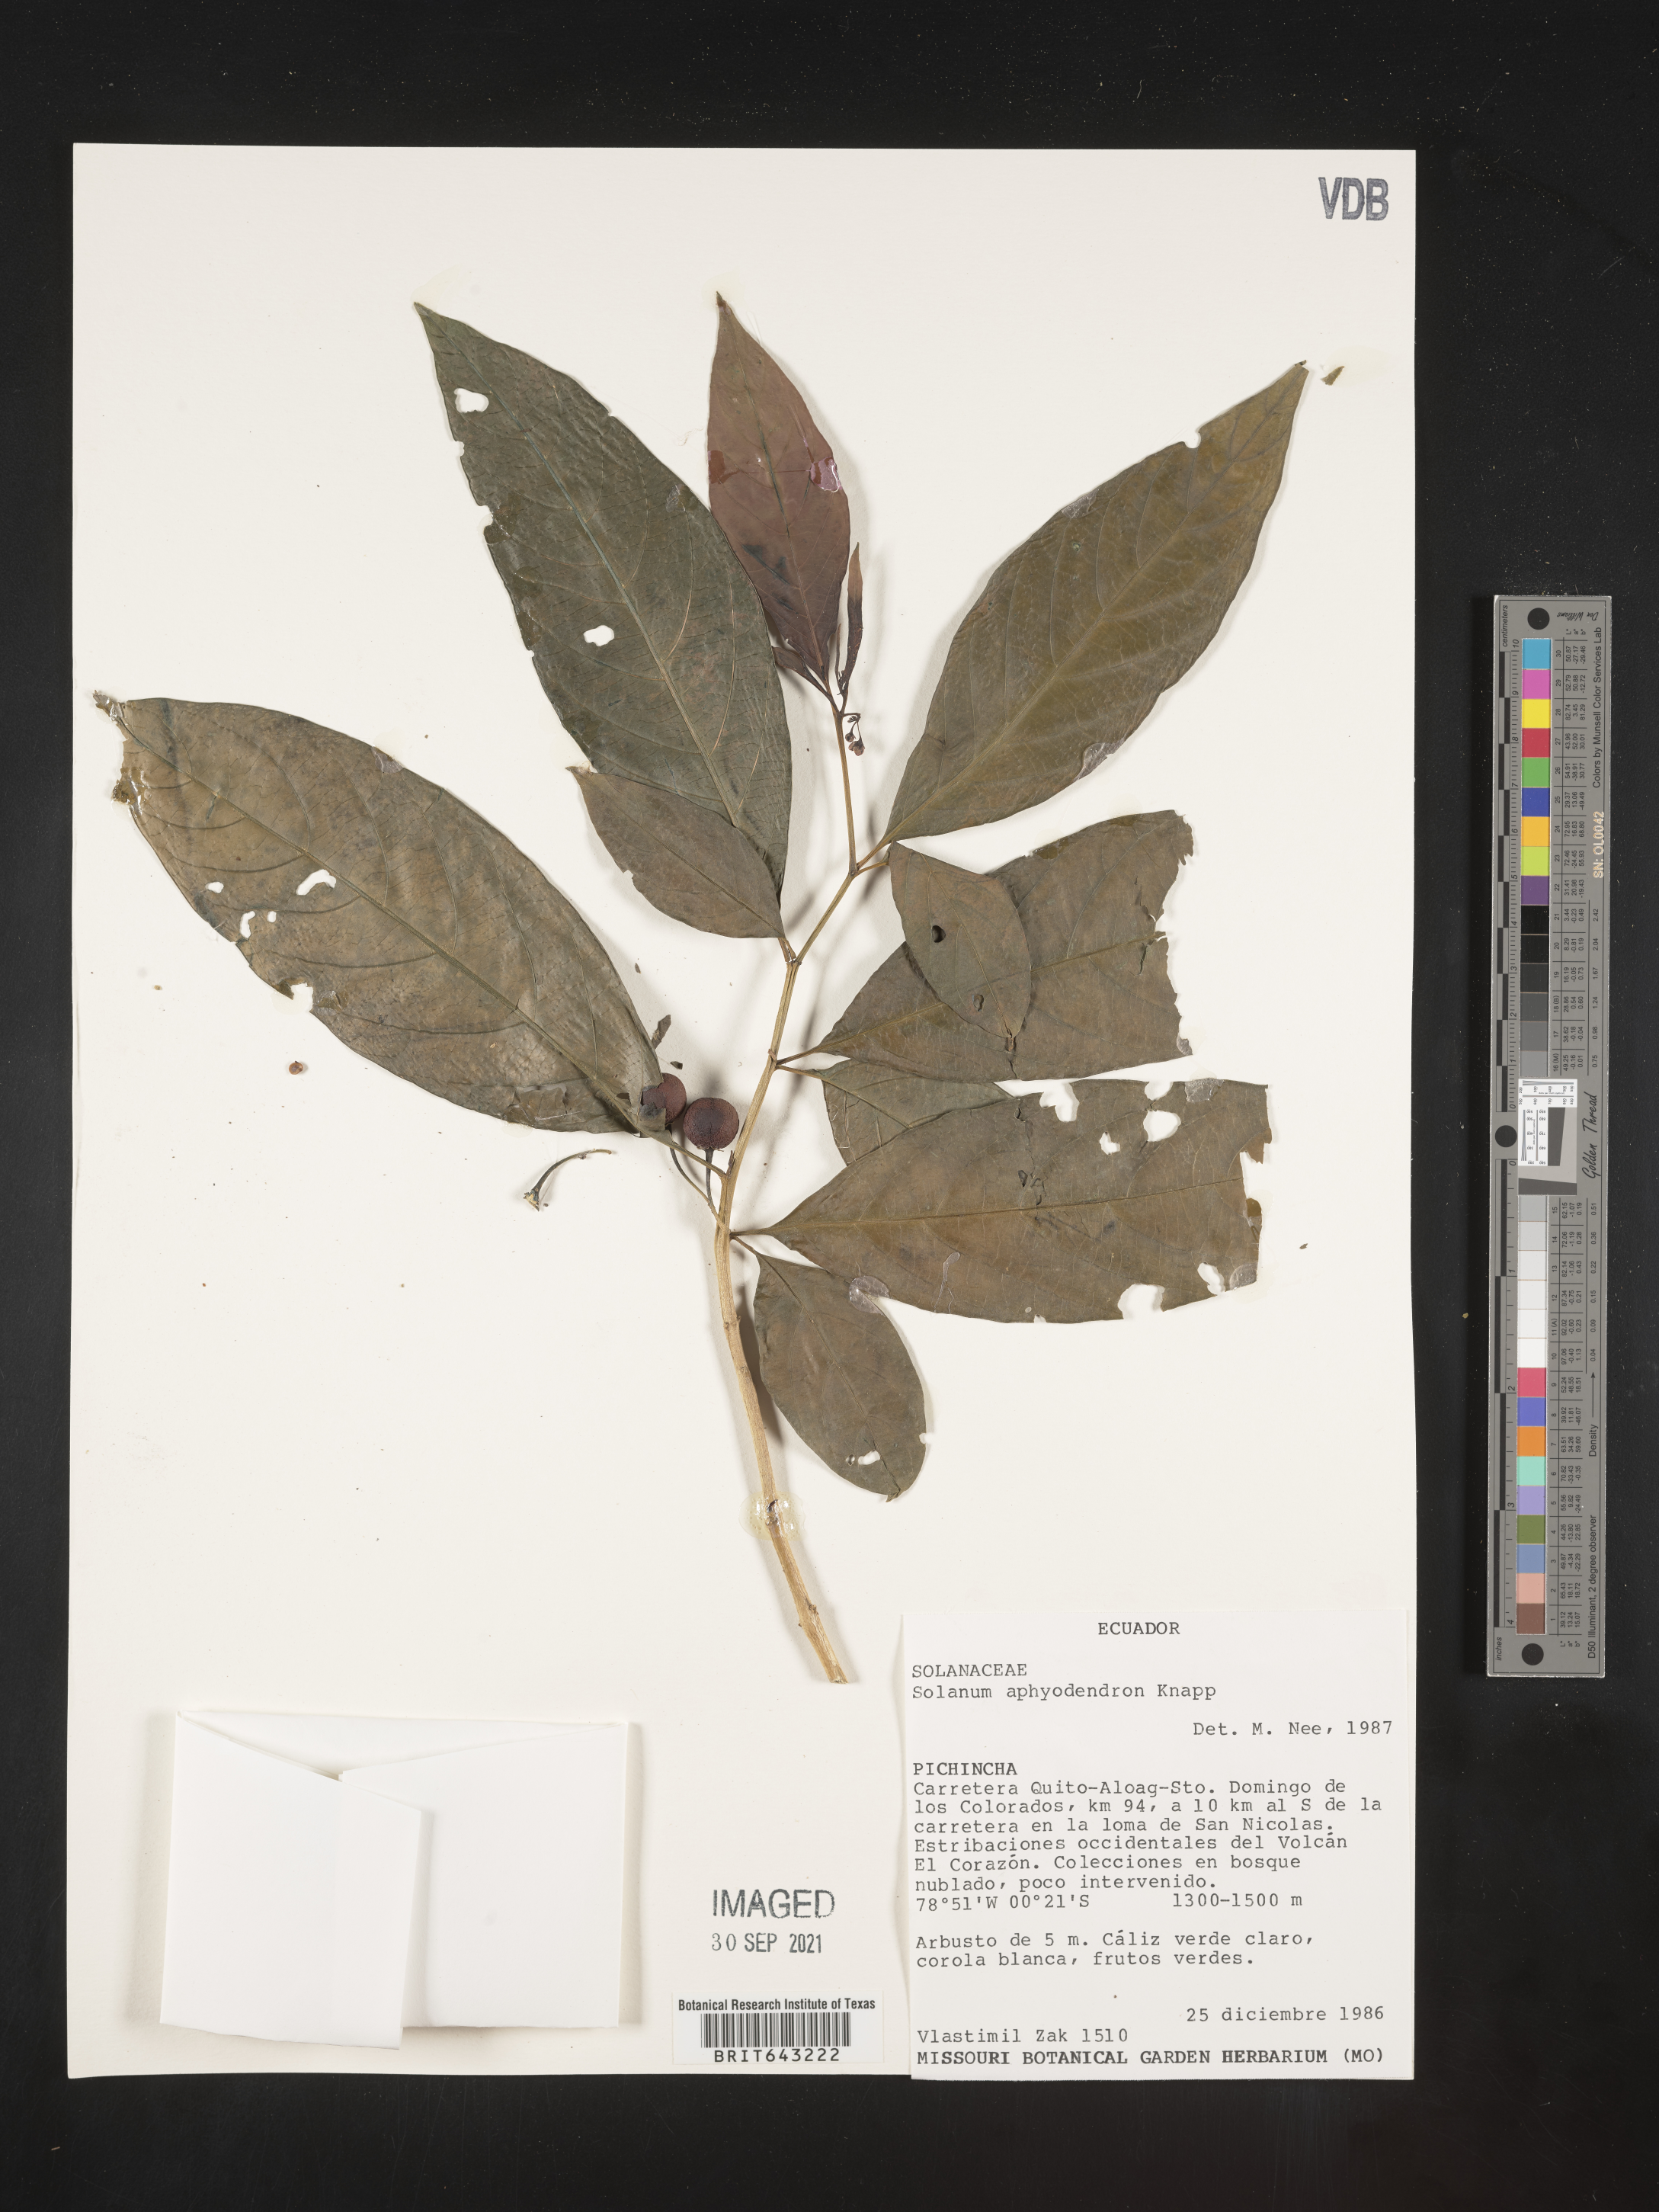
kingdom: Plantae
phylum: Tracheophyta
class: Magnoliopsida
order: Solanales
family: Solanaceae
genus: Solanum
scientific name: Solanum
